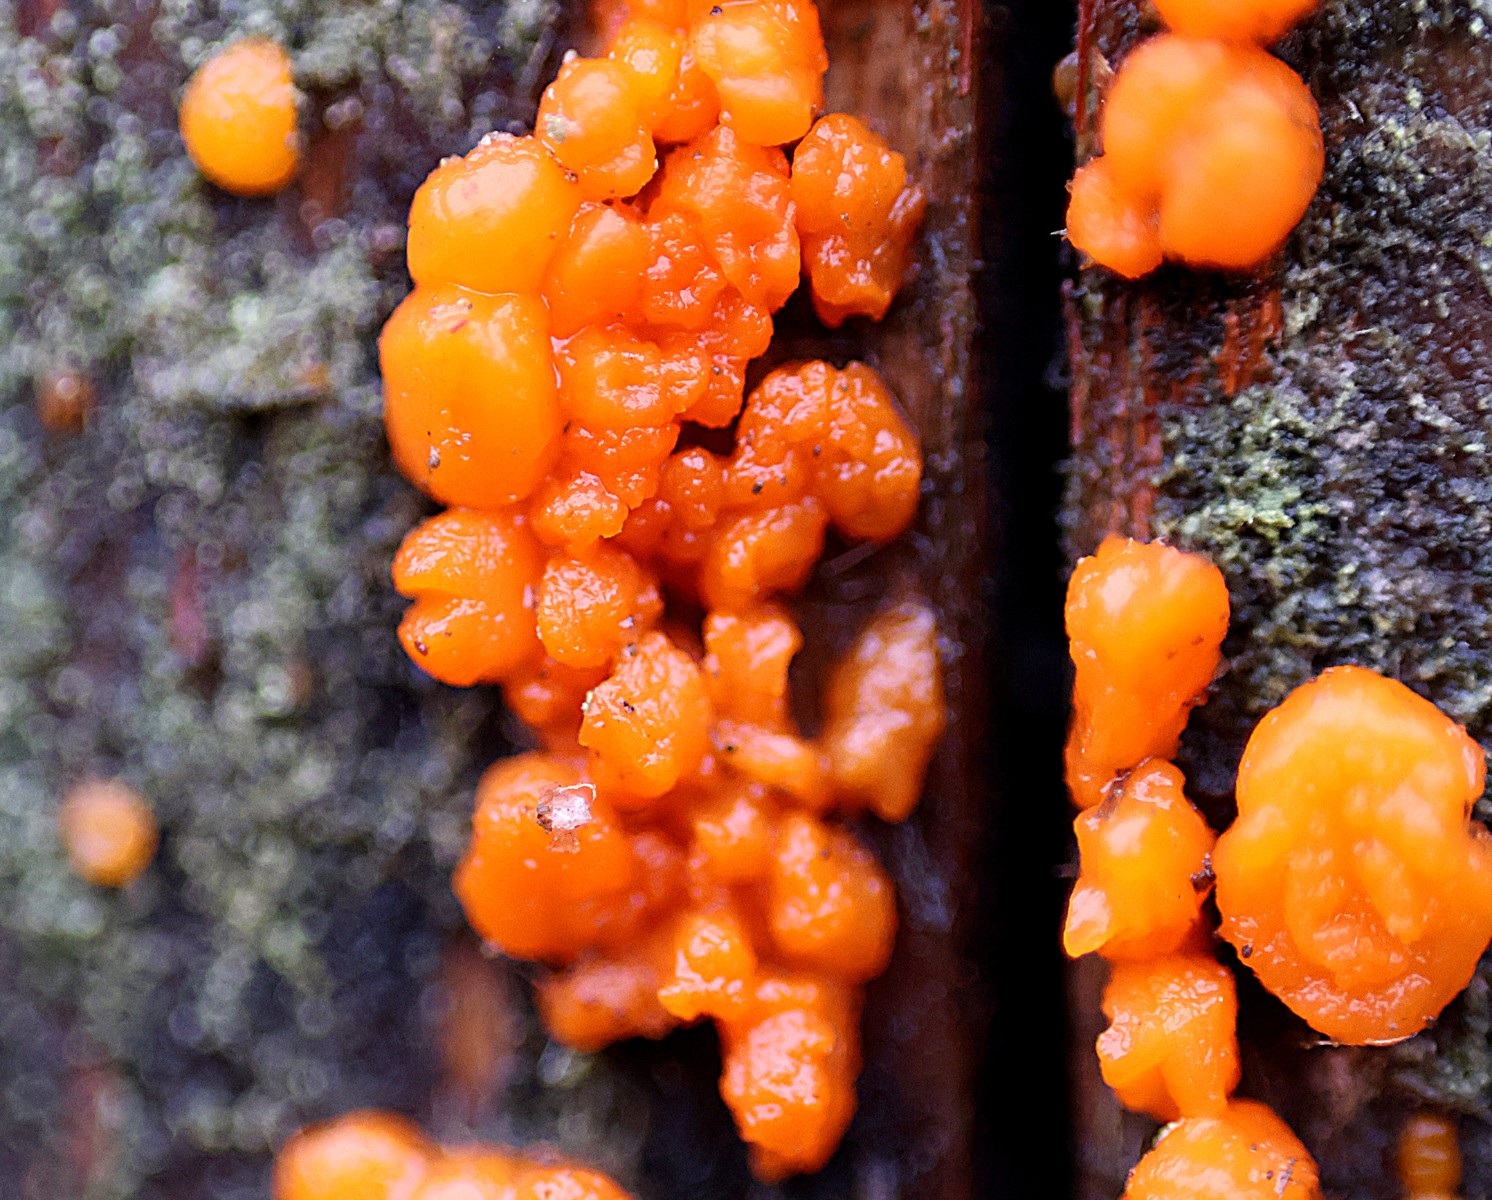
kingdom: Fungi
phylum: Basidiomycota
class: Dacrymycetes
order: Dacrymycetales
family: Dacrymycetaceae
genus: Dacrymyces
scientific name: Dacrymyces stillatus
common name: almindelig tåresvamp
